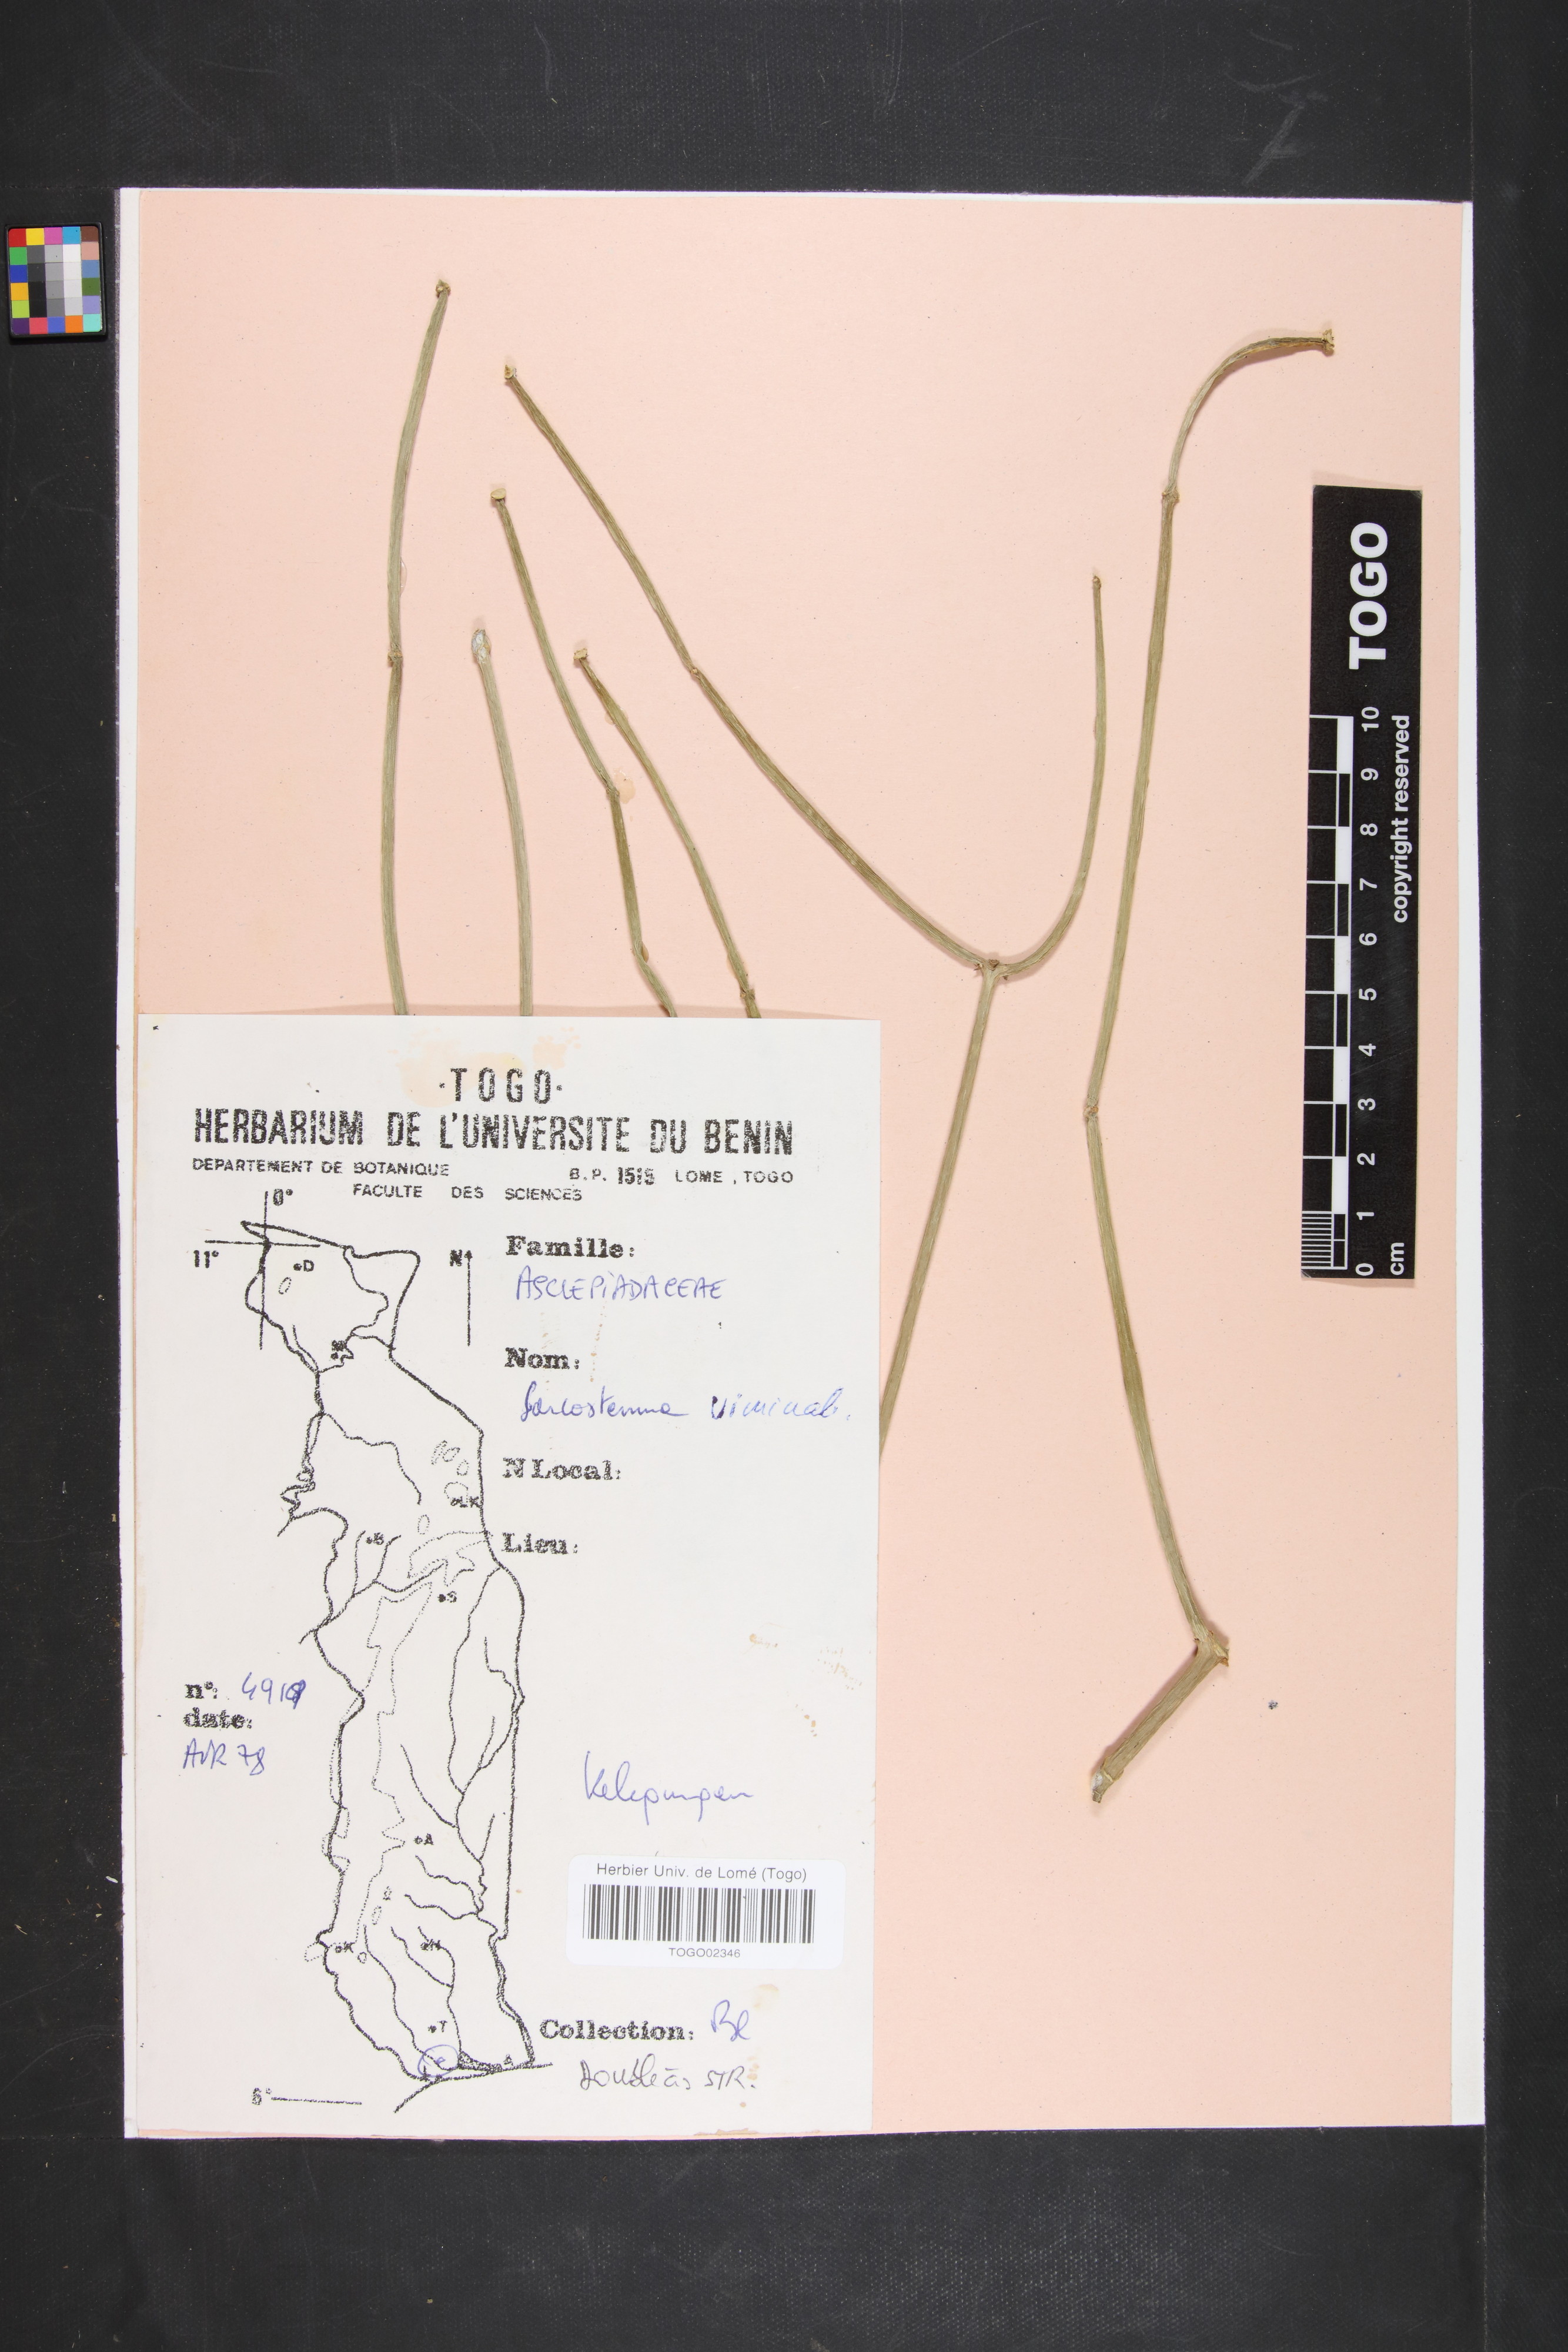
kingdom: Plantae
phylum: Tracheophyta
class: Magnoliopsida
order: Gentianales
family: Apocynaceae
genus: Cynanchum
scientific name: Cynanchum viminale
